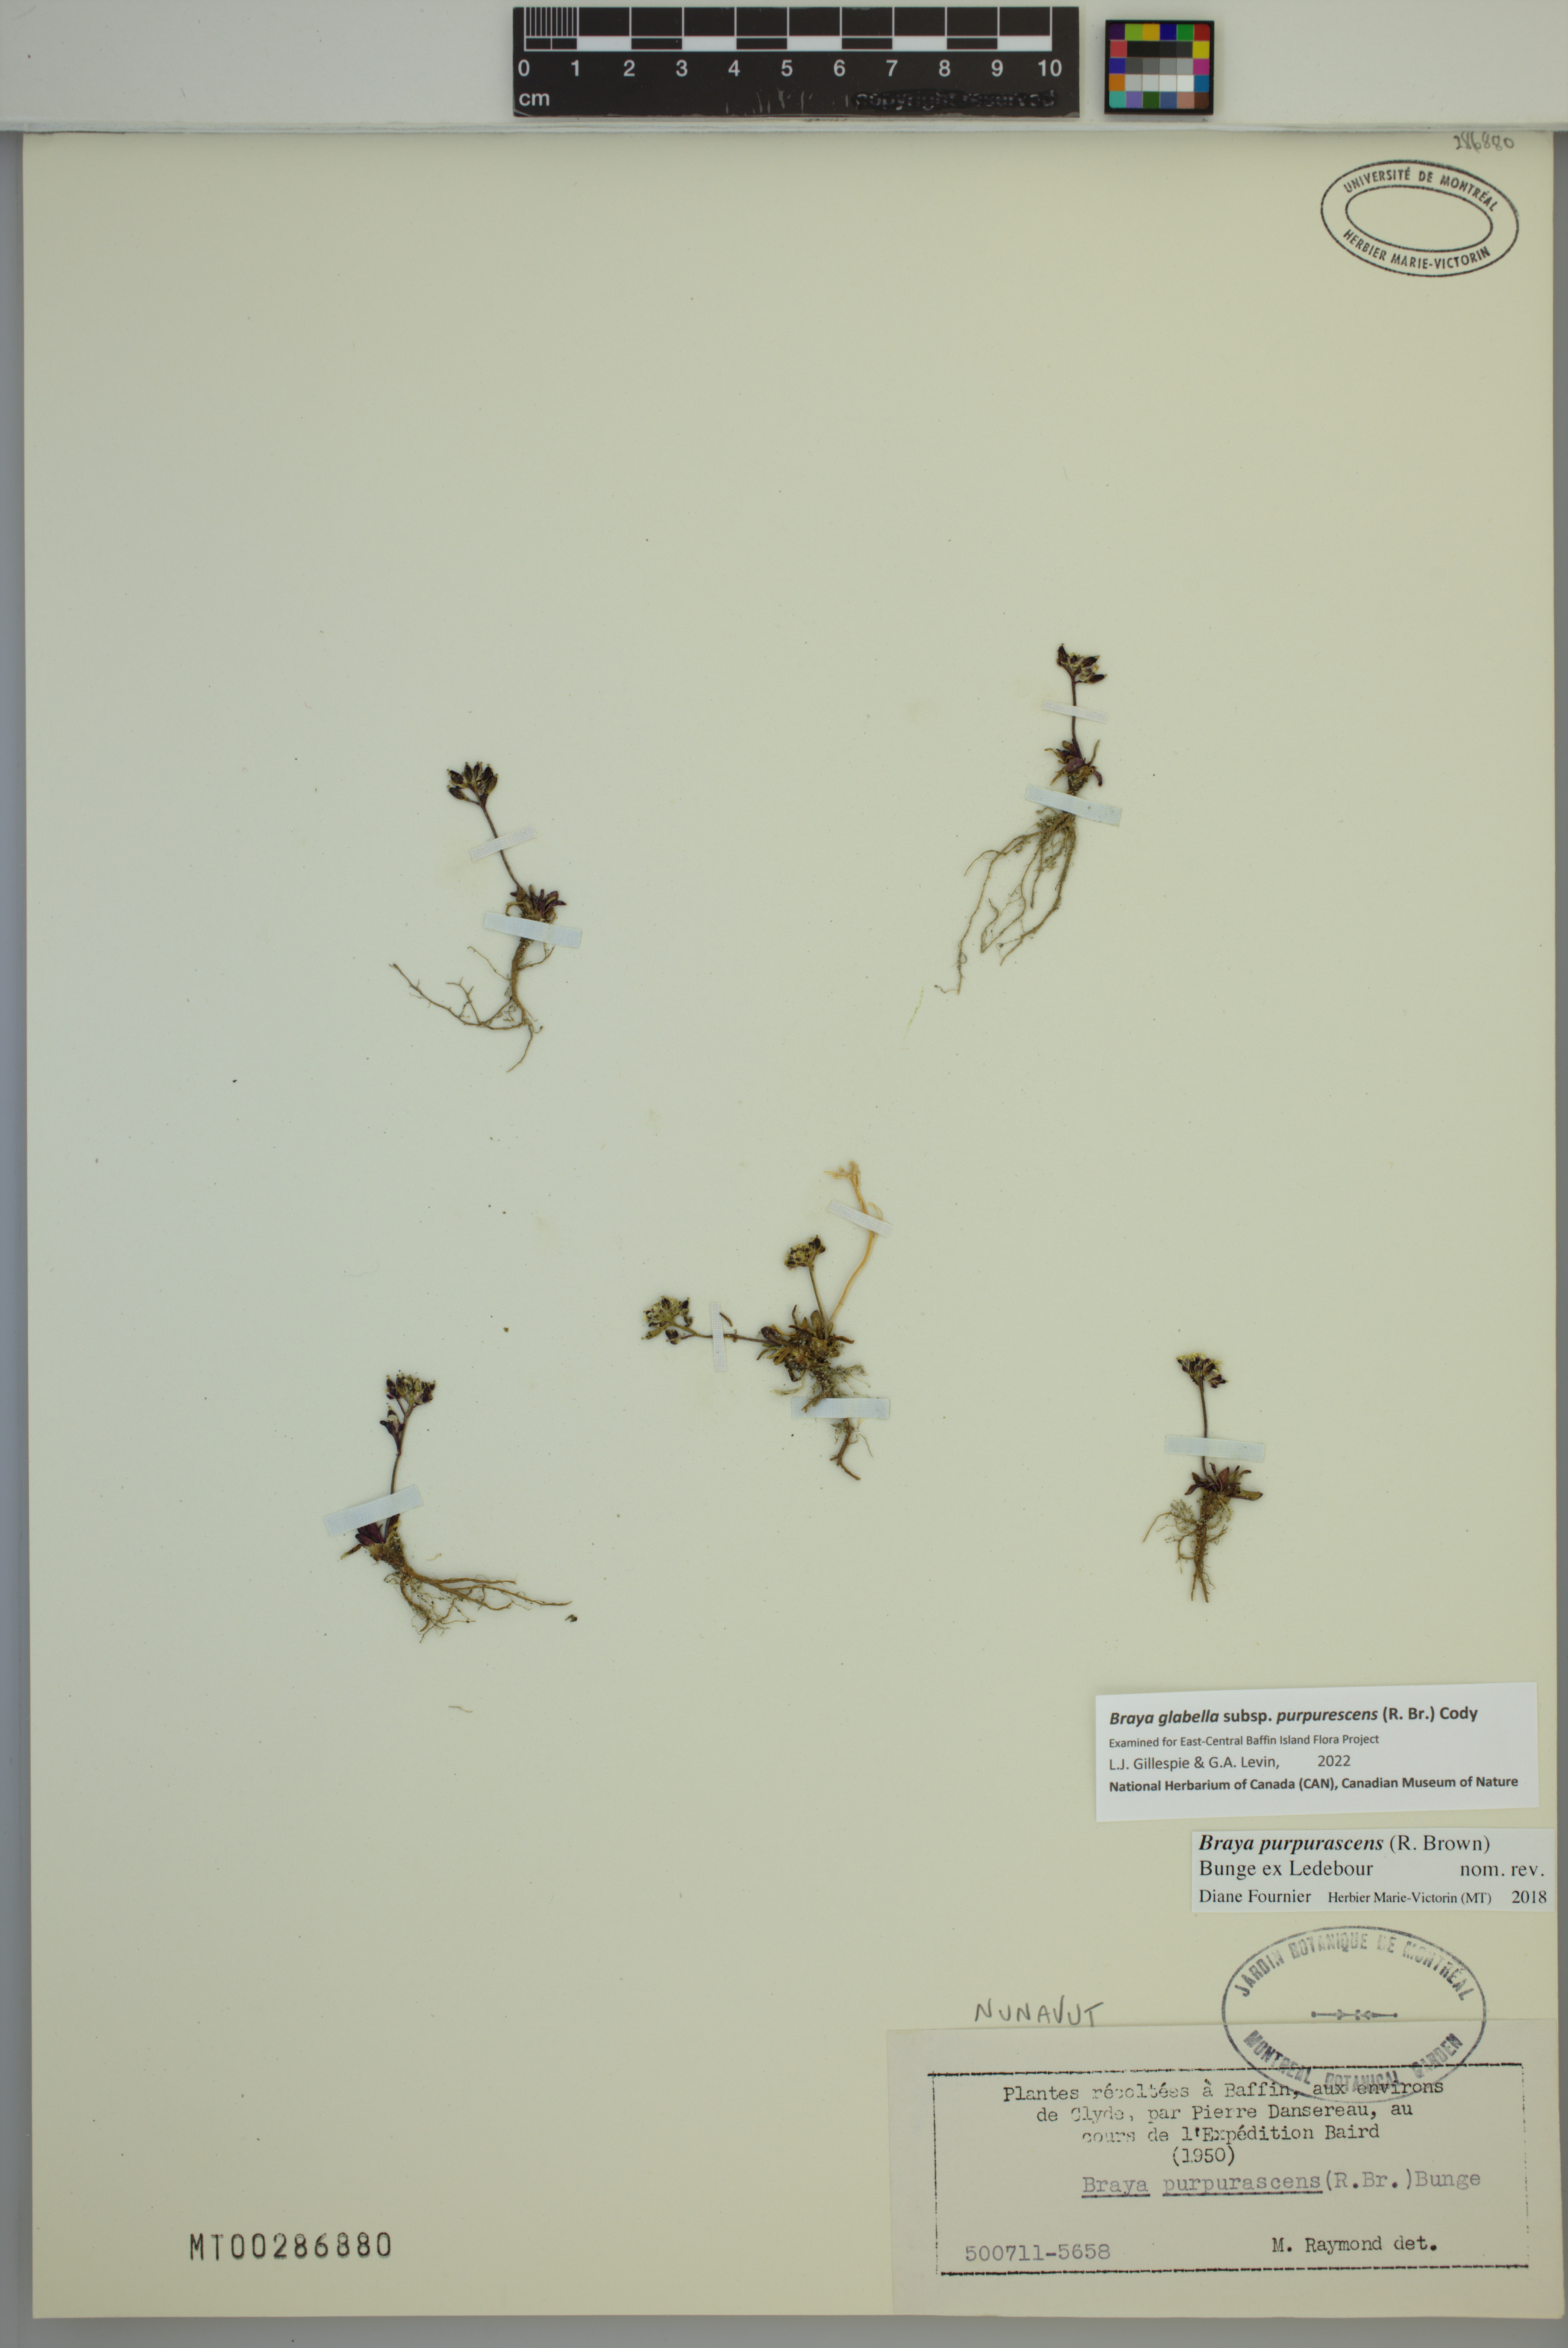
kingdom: Plantae
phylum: Tracheophyta
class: Magnoliopsida
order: Brassicales
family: Brassicaceae
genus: Braya
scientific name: Braya purpurascens
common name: Alpine braya
